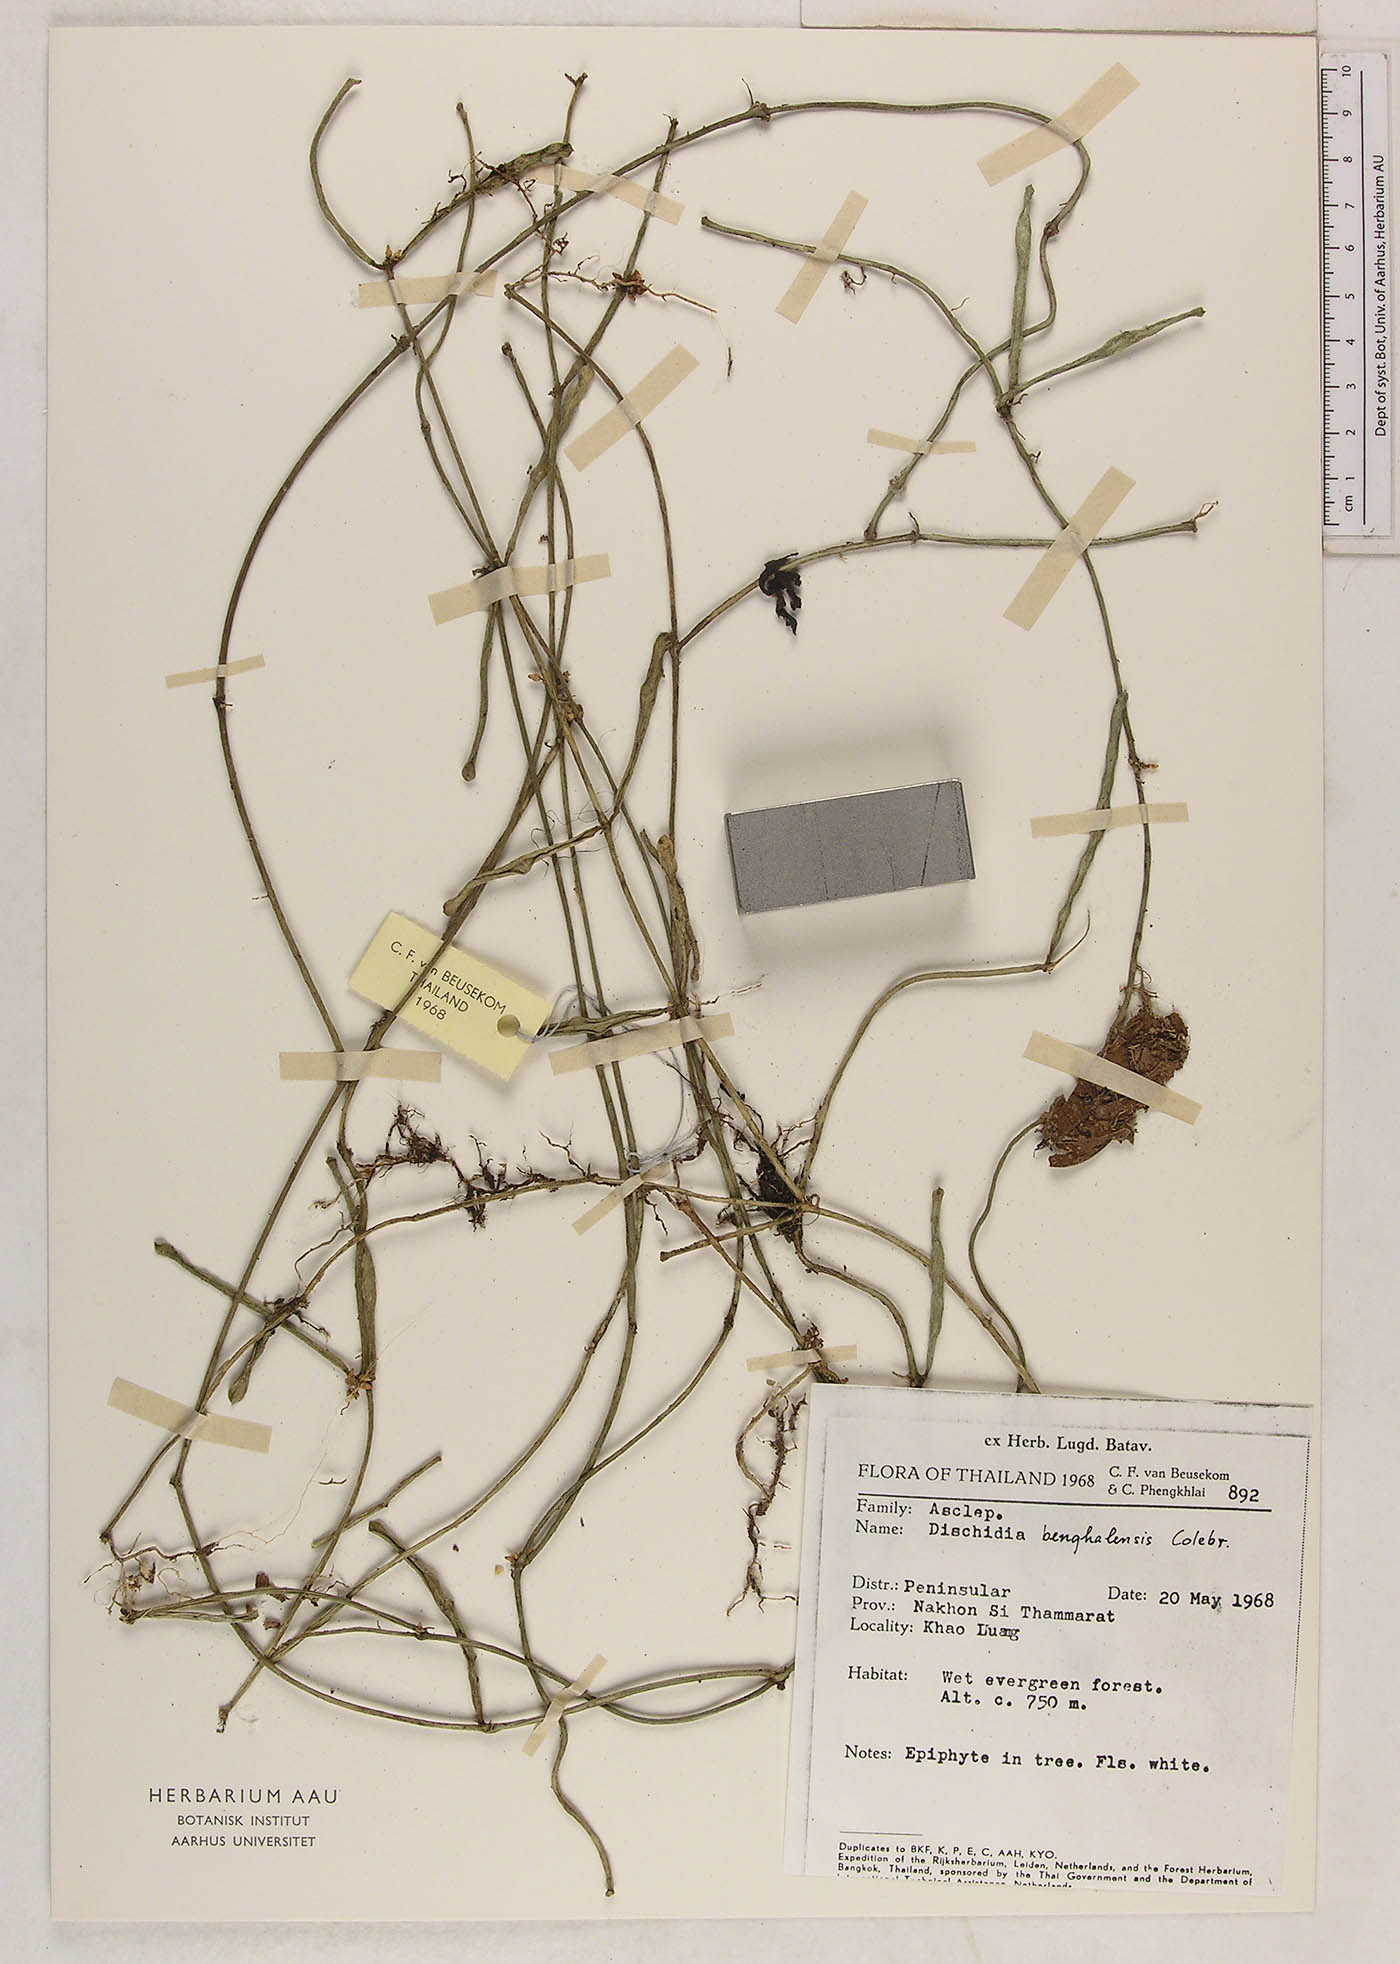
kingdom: Plantae
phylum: Tracheophyta
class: Magnoliopsida
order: Gentianales
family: Apocynaceae
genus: Dischidia
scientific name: Dischidia bengalensis
